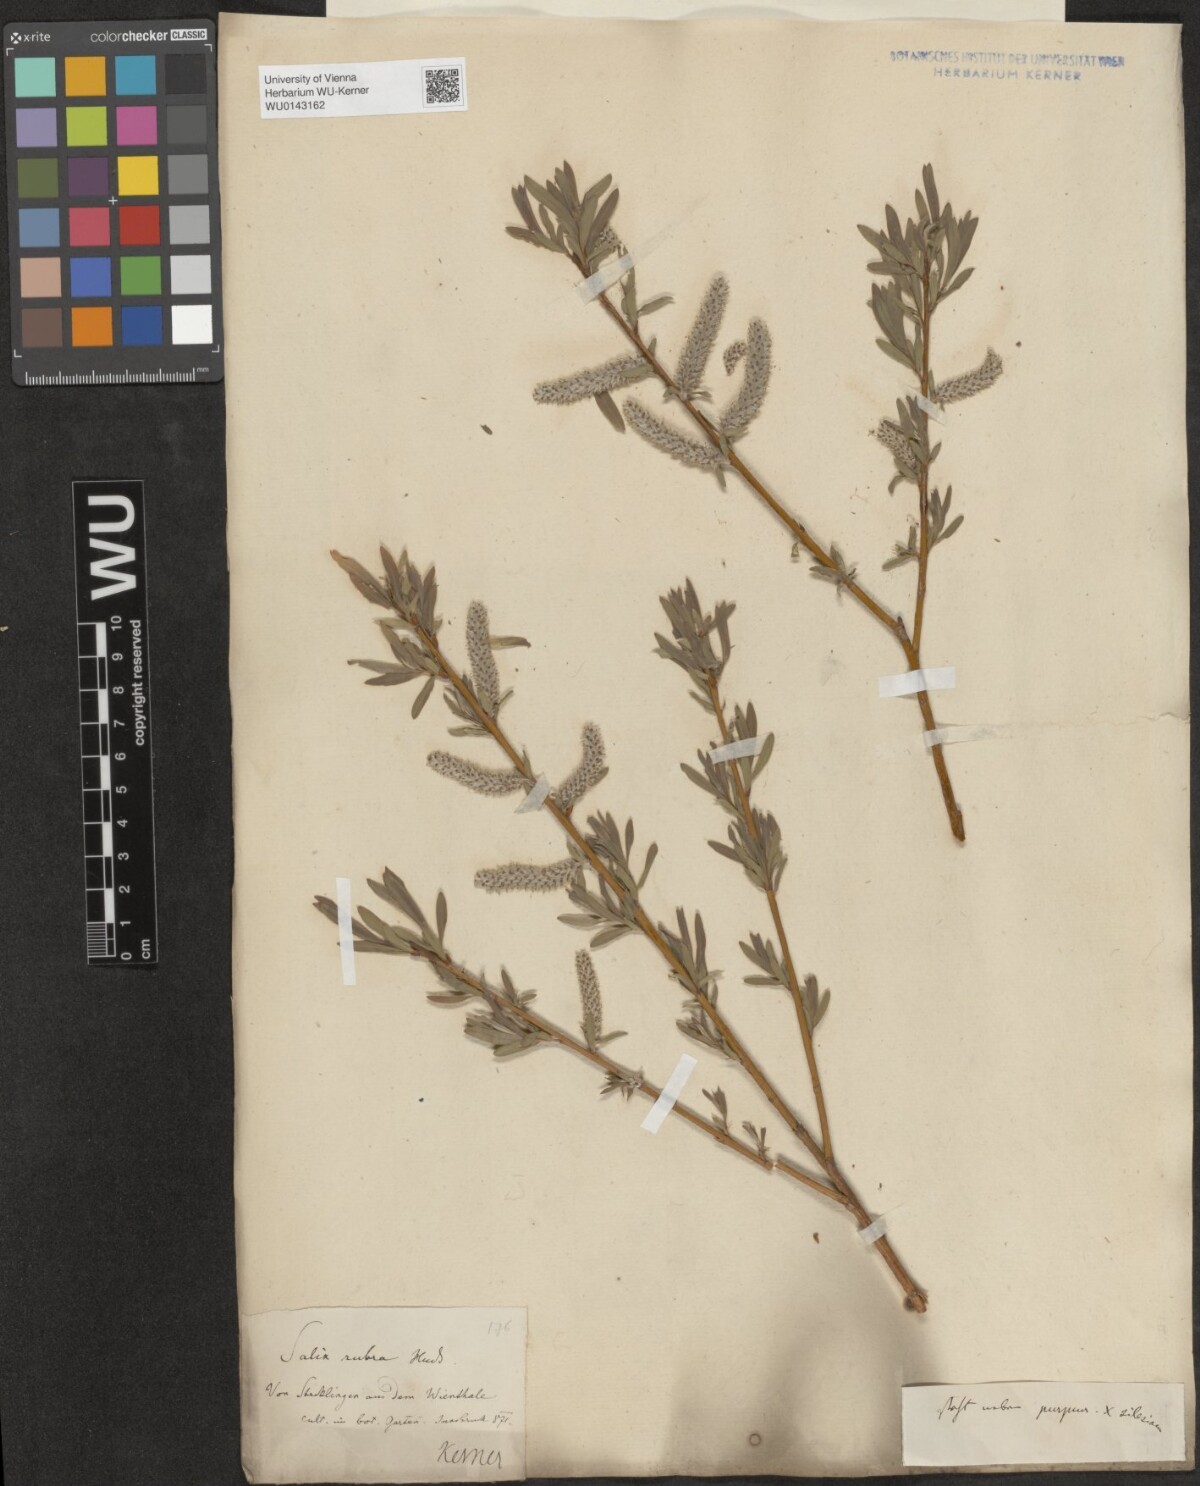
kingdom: Plantae
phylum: Tracheophyta
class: Magnoliopsida
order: Malpighiales
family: Salicaceae
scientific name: Salicaceae
